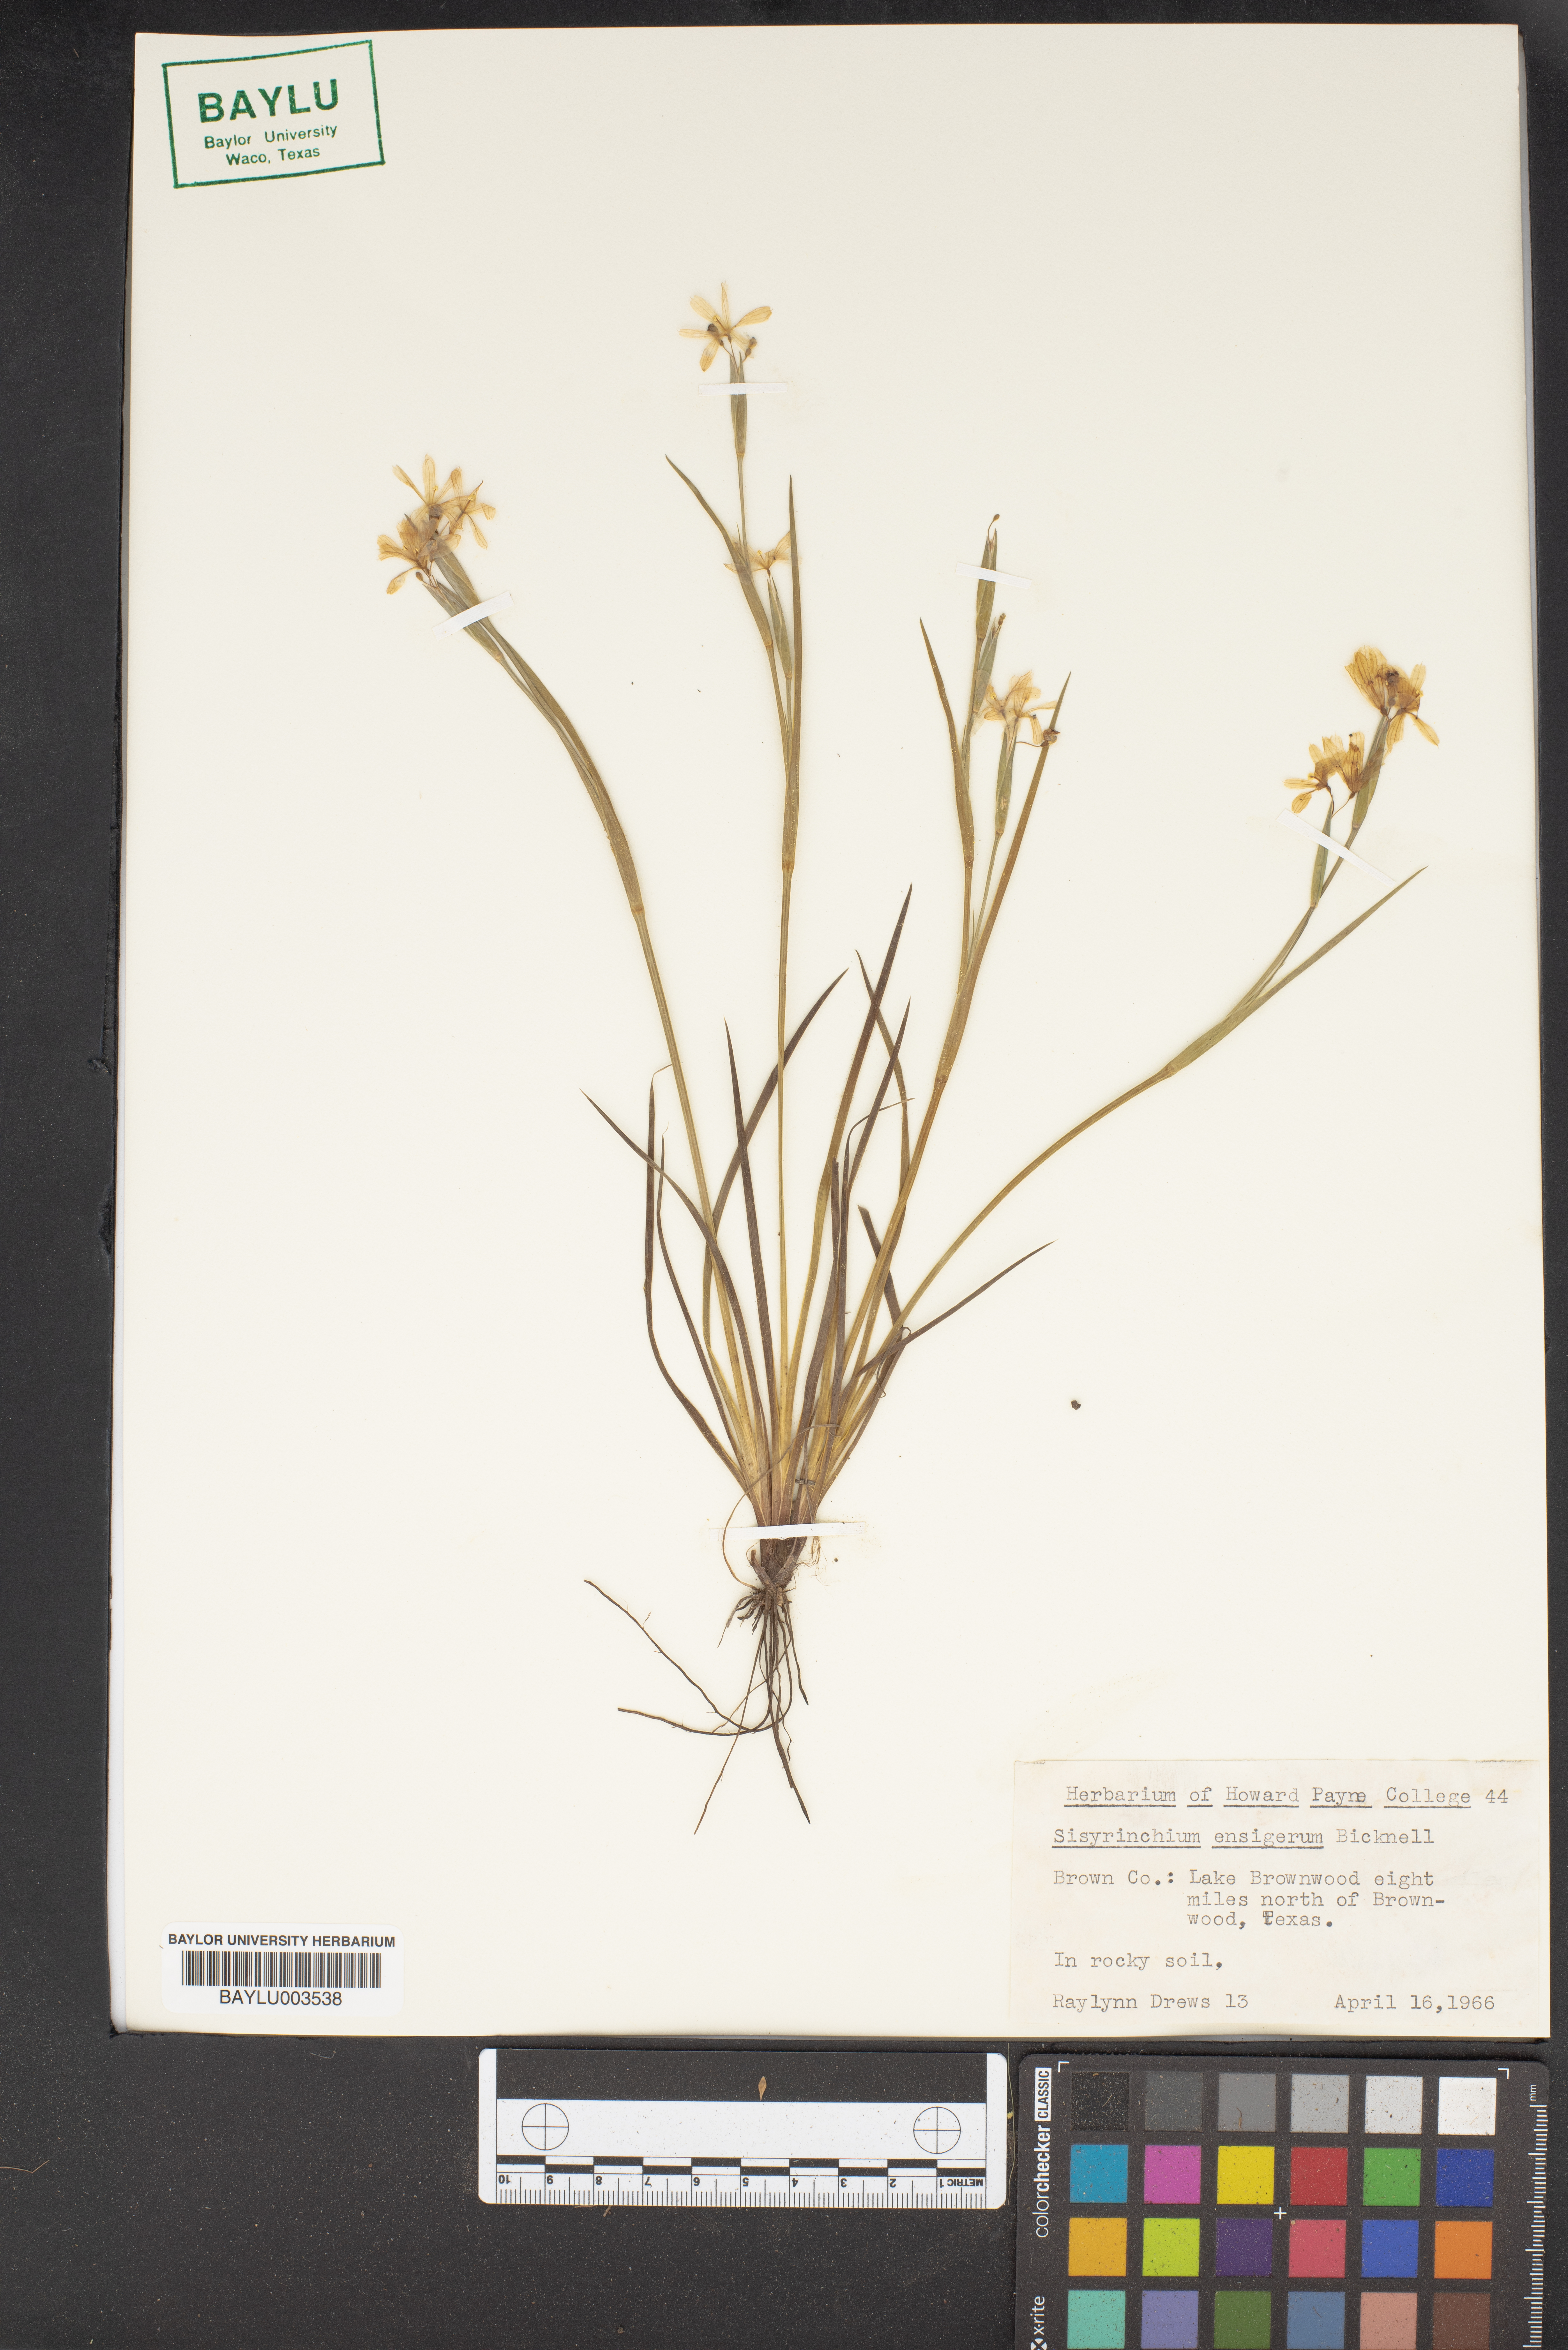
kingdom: Plantae
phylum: Tracheophyta
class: Liliopsida
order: Asparagales
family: Iridaceae
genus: Sisyrinchium
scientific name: Sisyrinchium ensigerum
